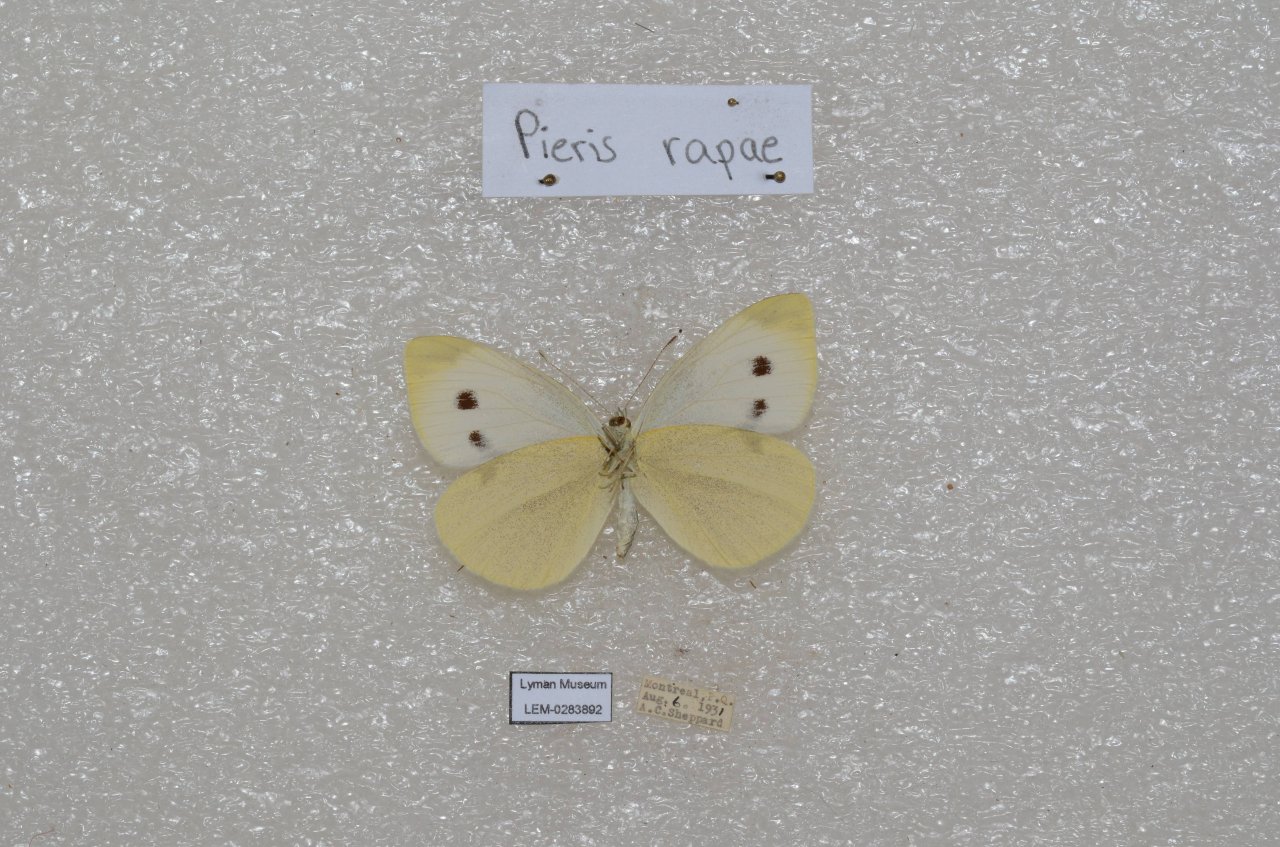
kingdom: Animalia
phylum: Arthropoda
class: Insecta
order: Lepidoptera
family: Pieridae
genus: Pieris
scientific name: Pieris rapae
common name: Cabbage White
